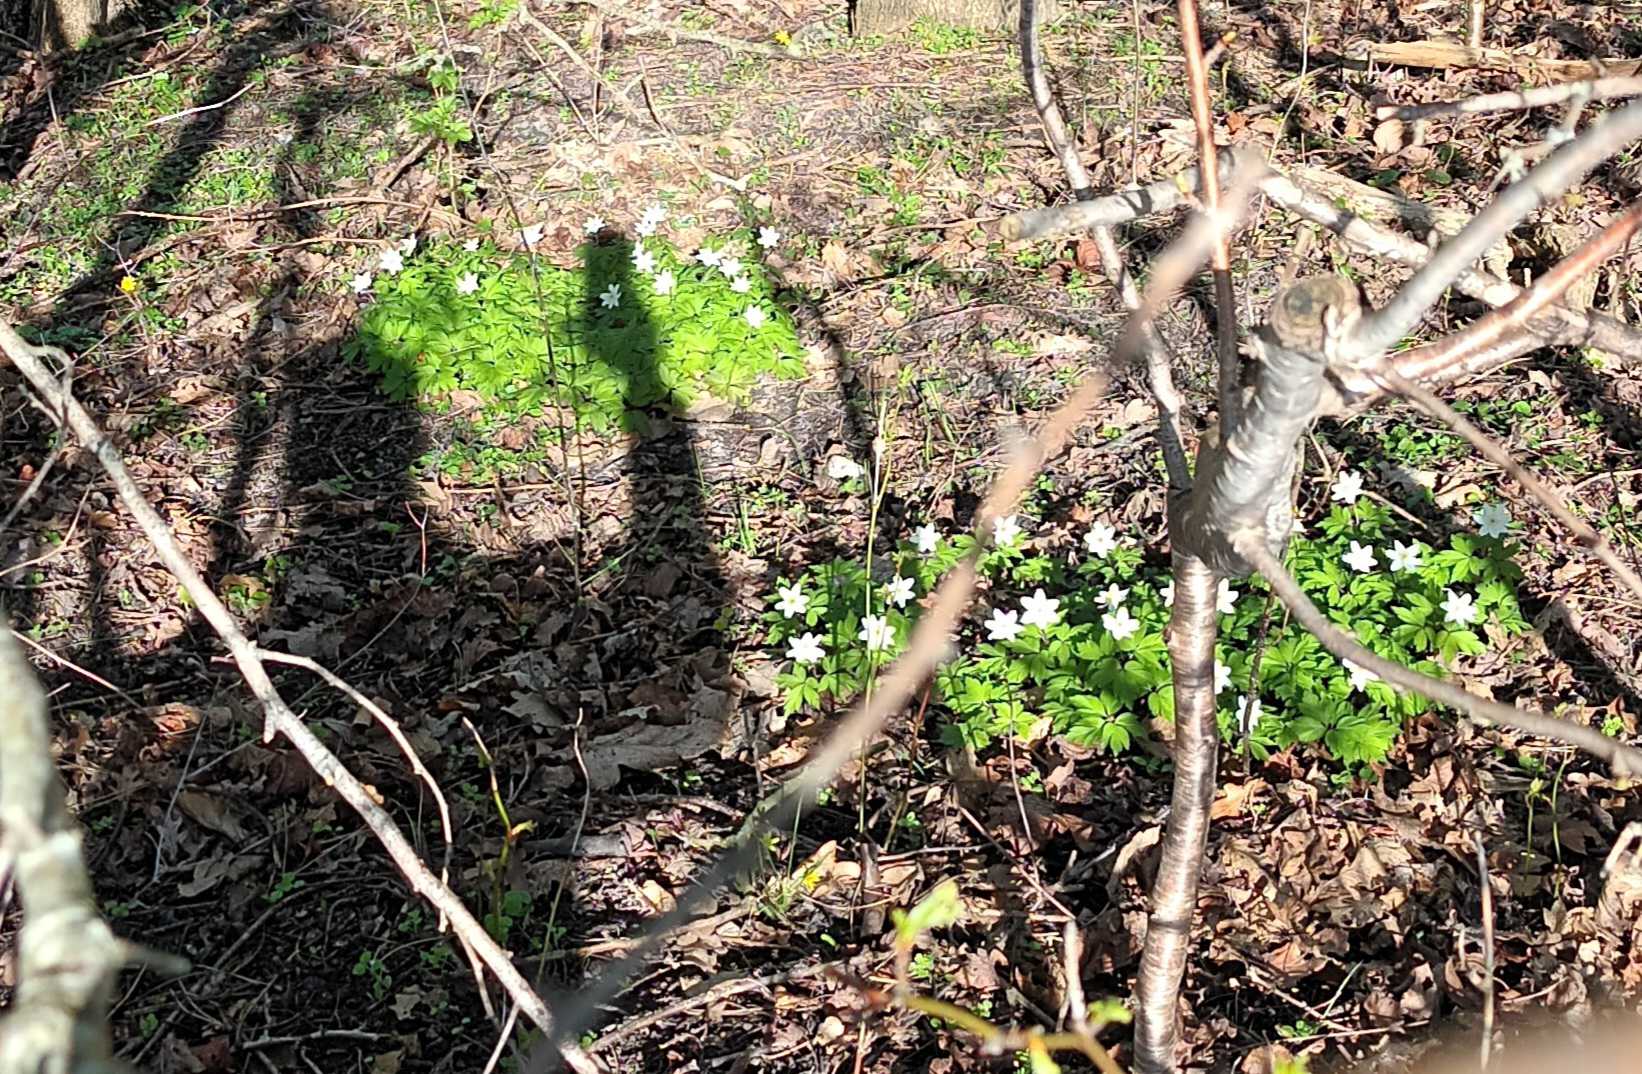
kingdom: Plantae
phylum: Tracheophyta
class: Magnoliopsida
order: Ranunculales
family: Ranunculaceae
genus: Anemone
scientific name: Anemone nemorosa
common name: Hvid anemone
